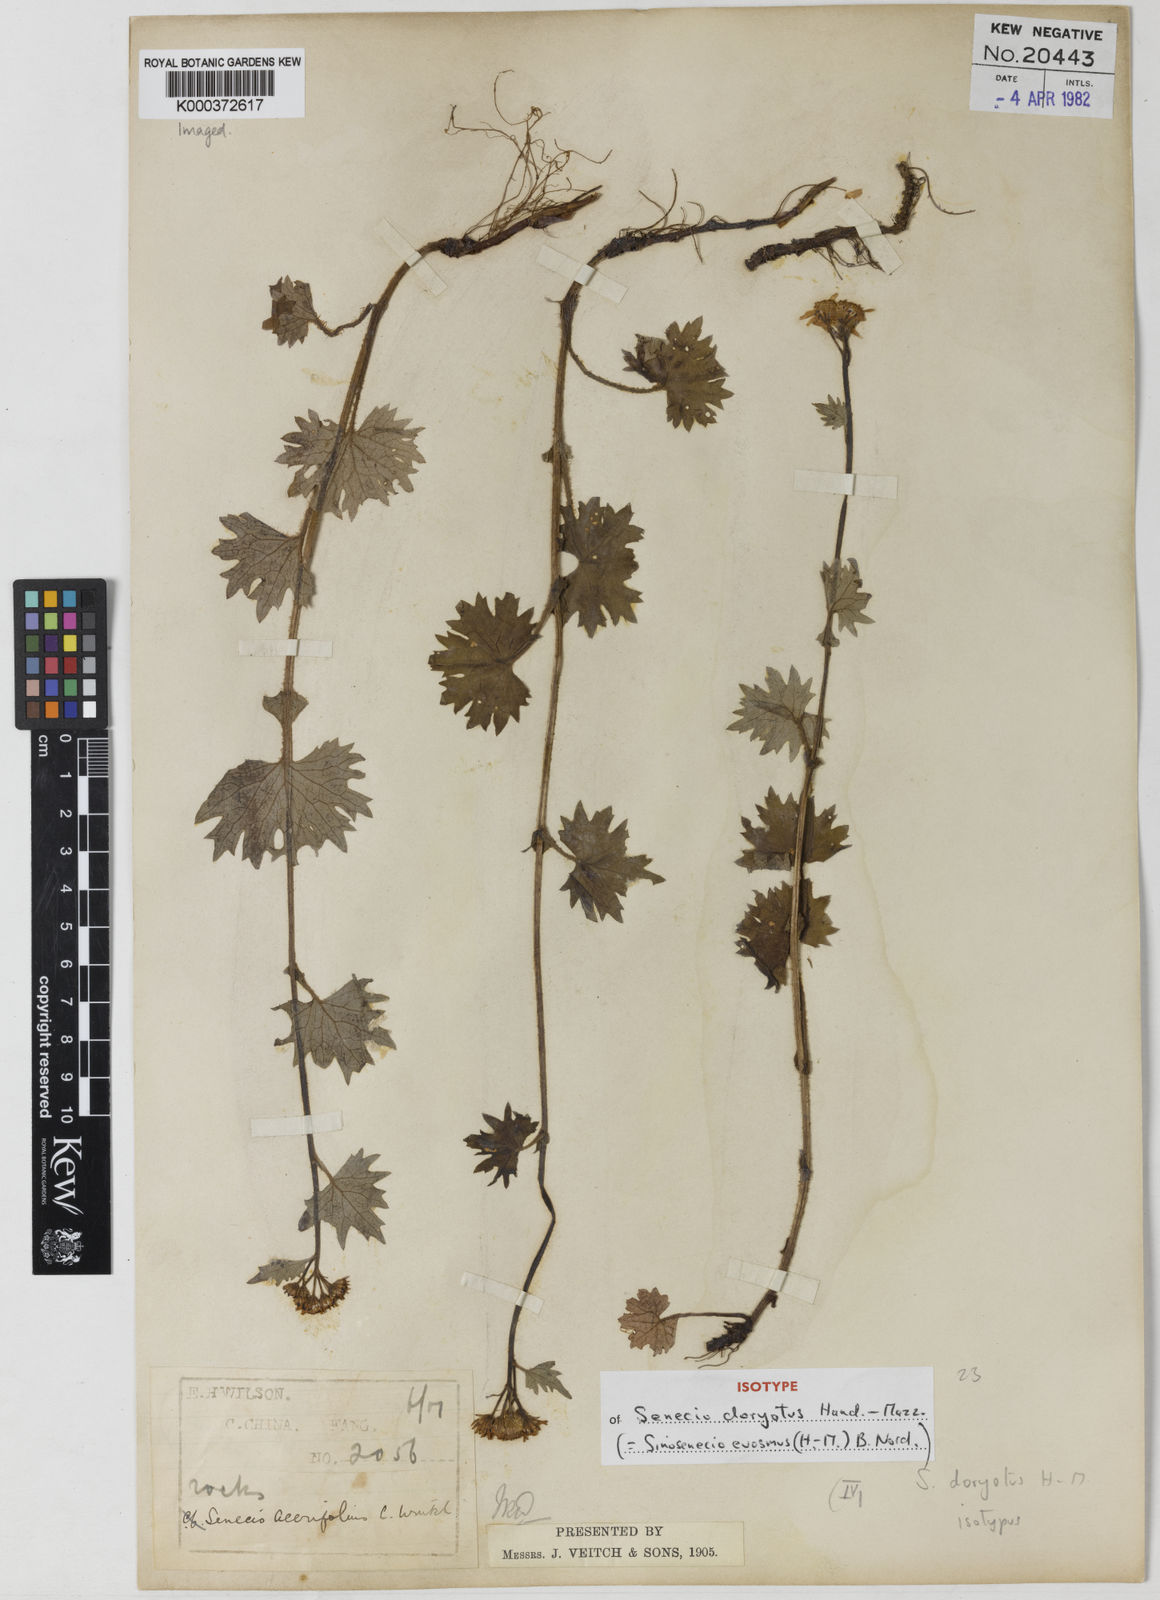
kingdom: Plantae
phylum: Tracheophyta
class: Magnoliopsida
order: Asterales
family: Asteraceae
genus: Sinosenecio
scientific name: Sinosenecio euosmus
